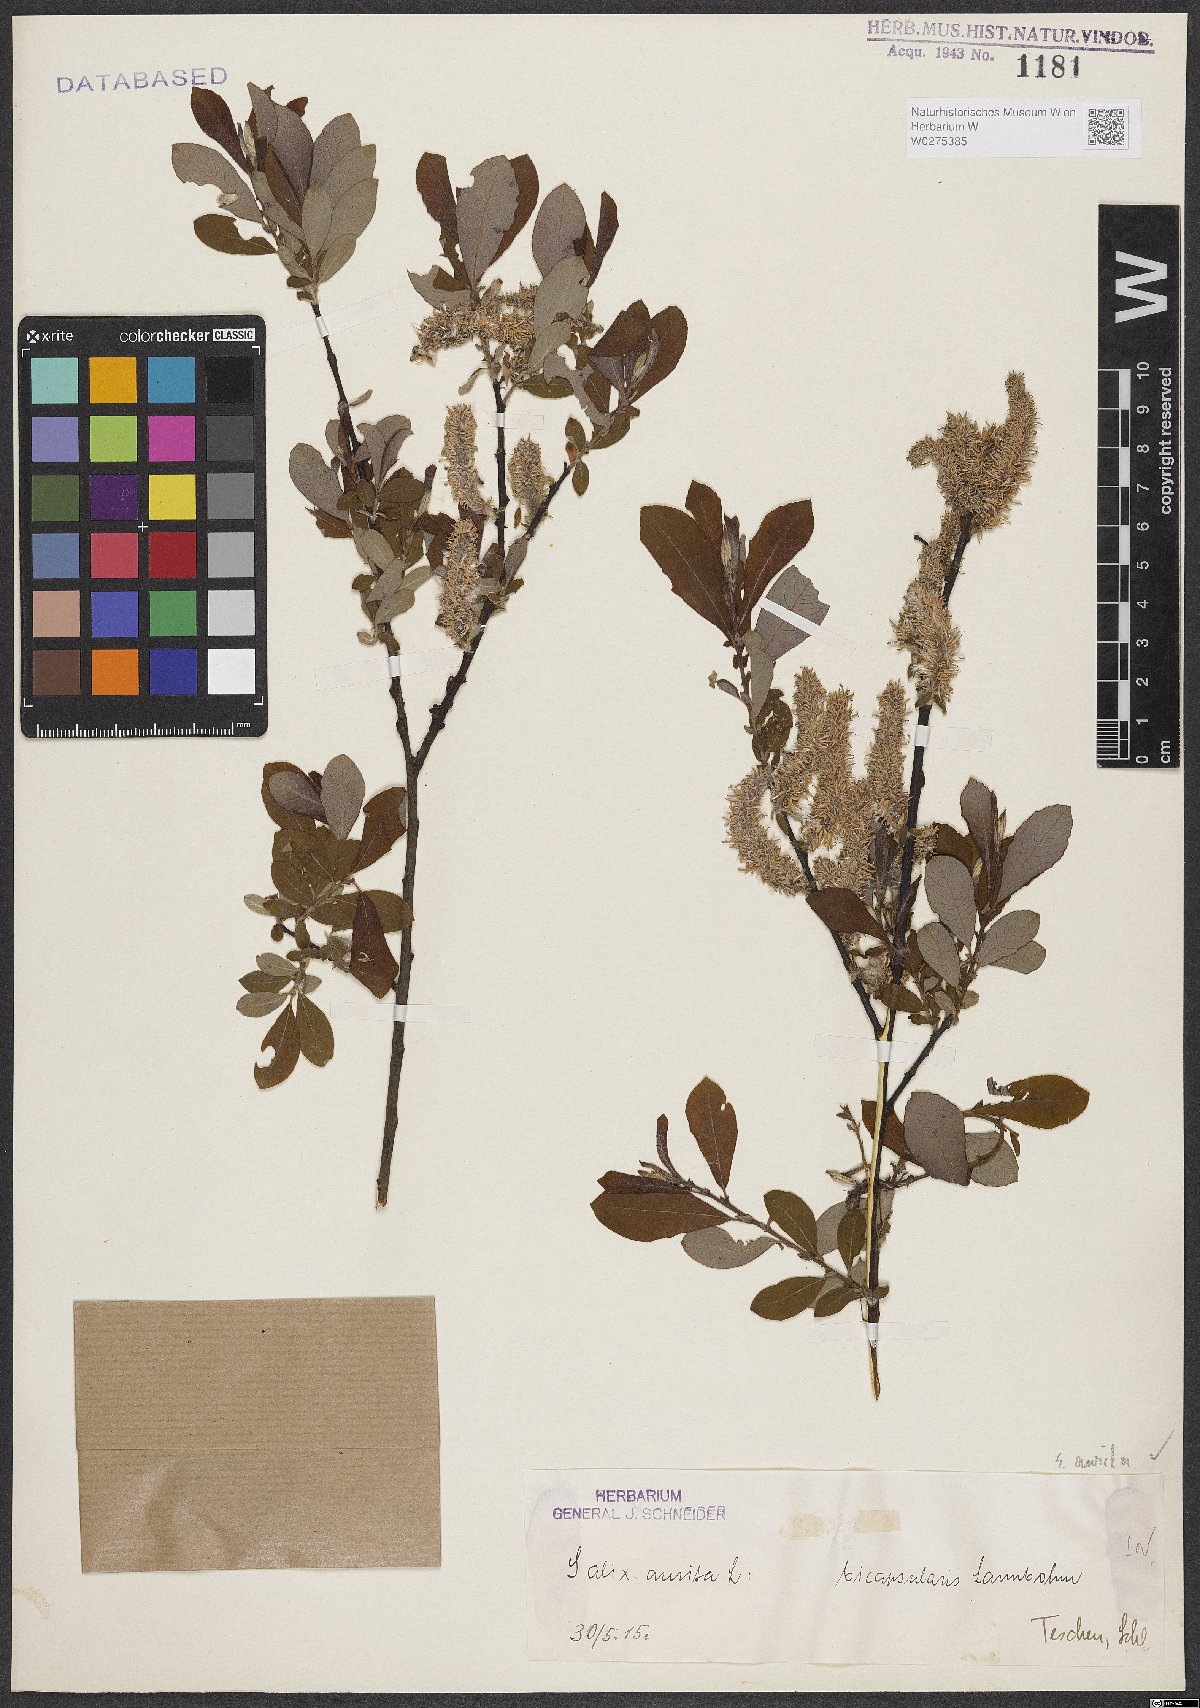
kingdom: Plantae
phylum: Tracheophyta
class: Magnoliopsida
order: Malpighiales
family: Salicaceae
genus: Salix
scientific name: Salix aurita
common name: Eared willow
